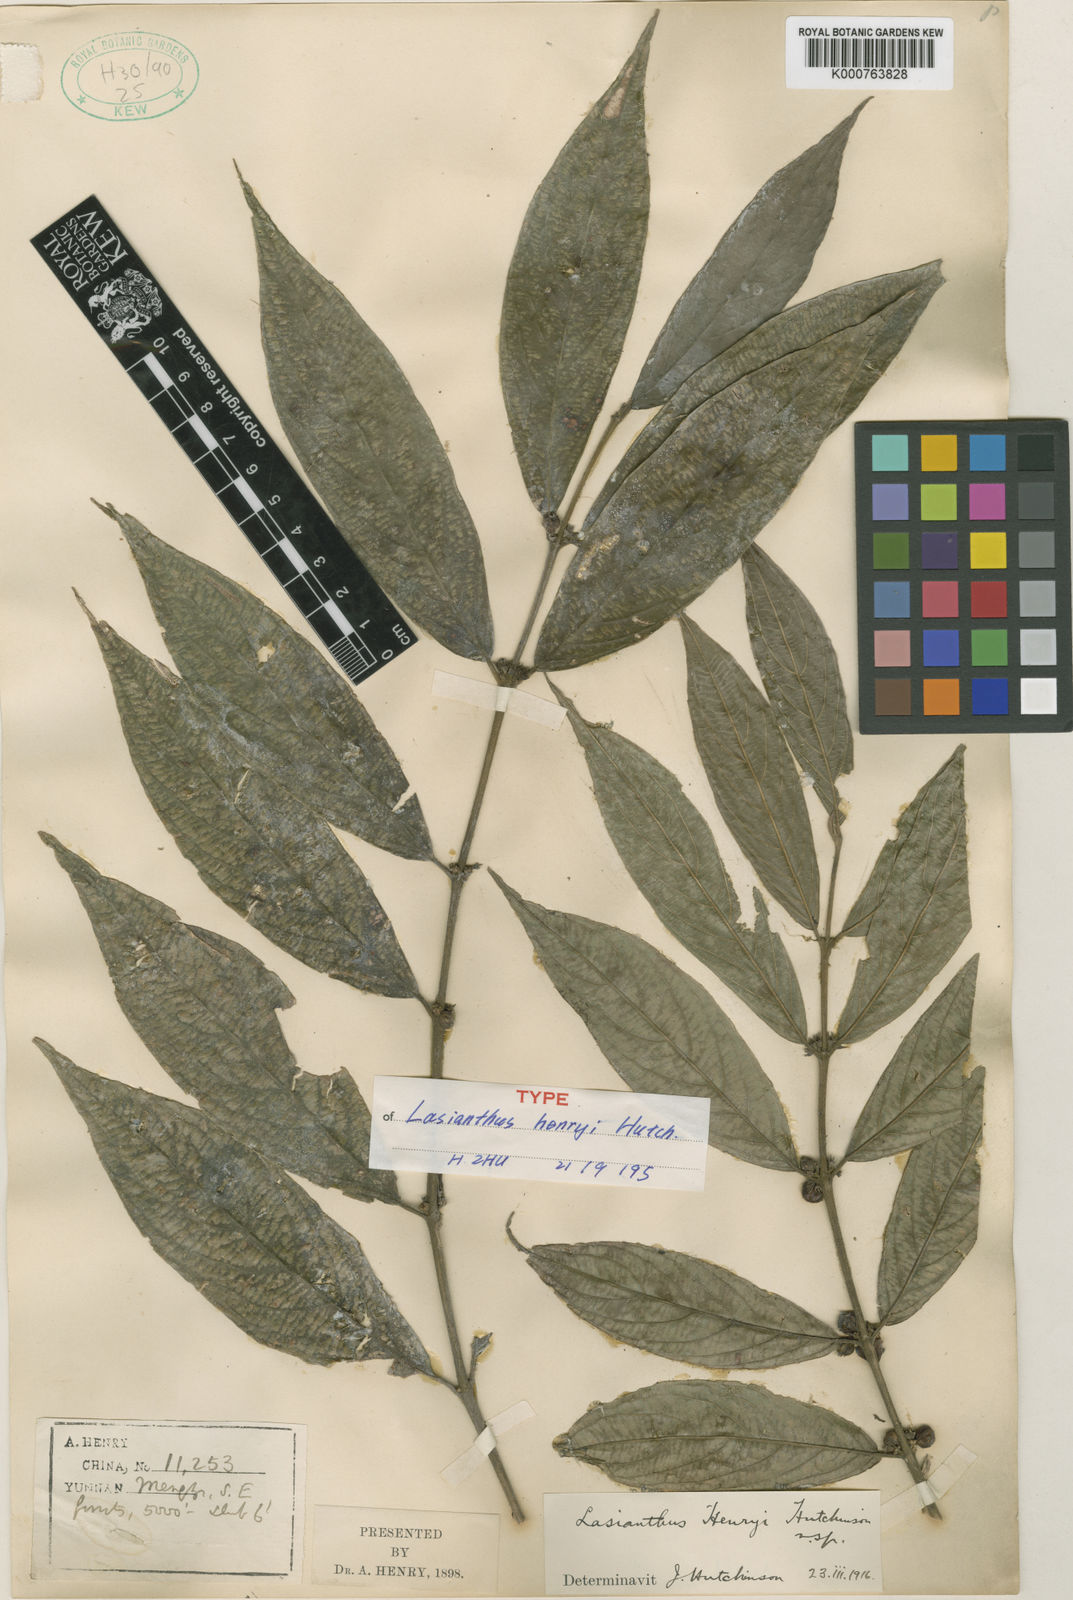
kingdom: Plantae
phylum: Tracheophyta
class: Magnoliopsida
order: Gentianales
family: Rubiaceae
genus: Lasianthus
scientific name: Lasianthus henryi
